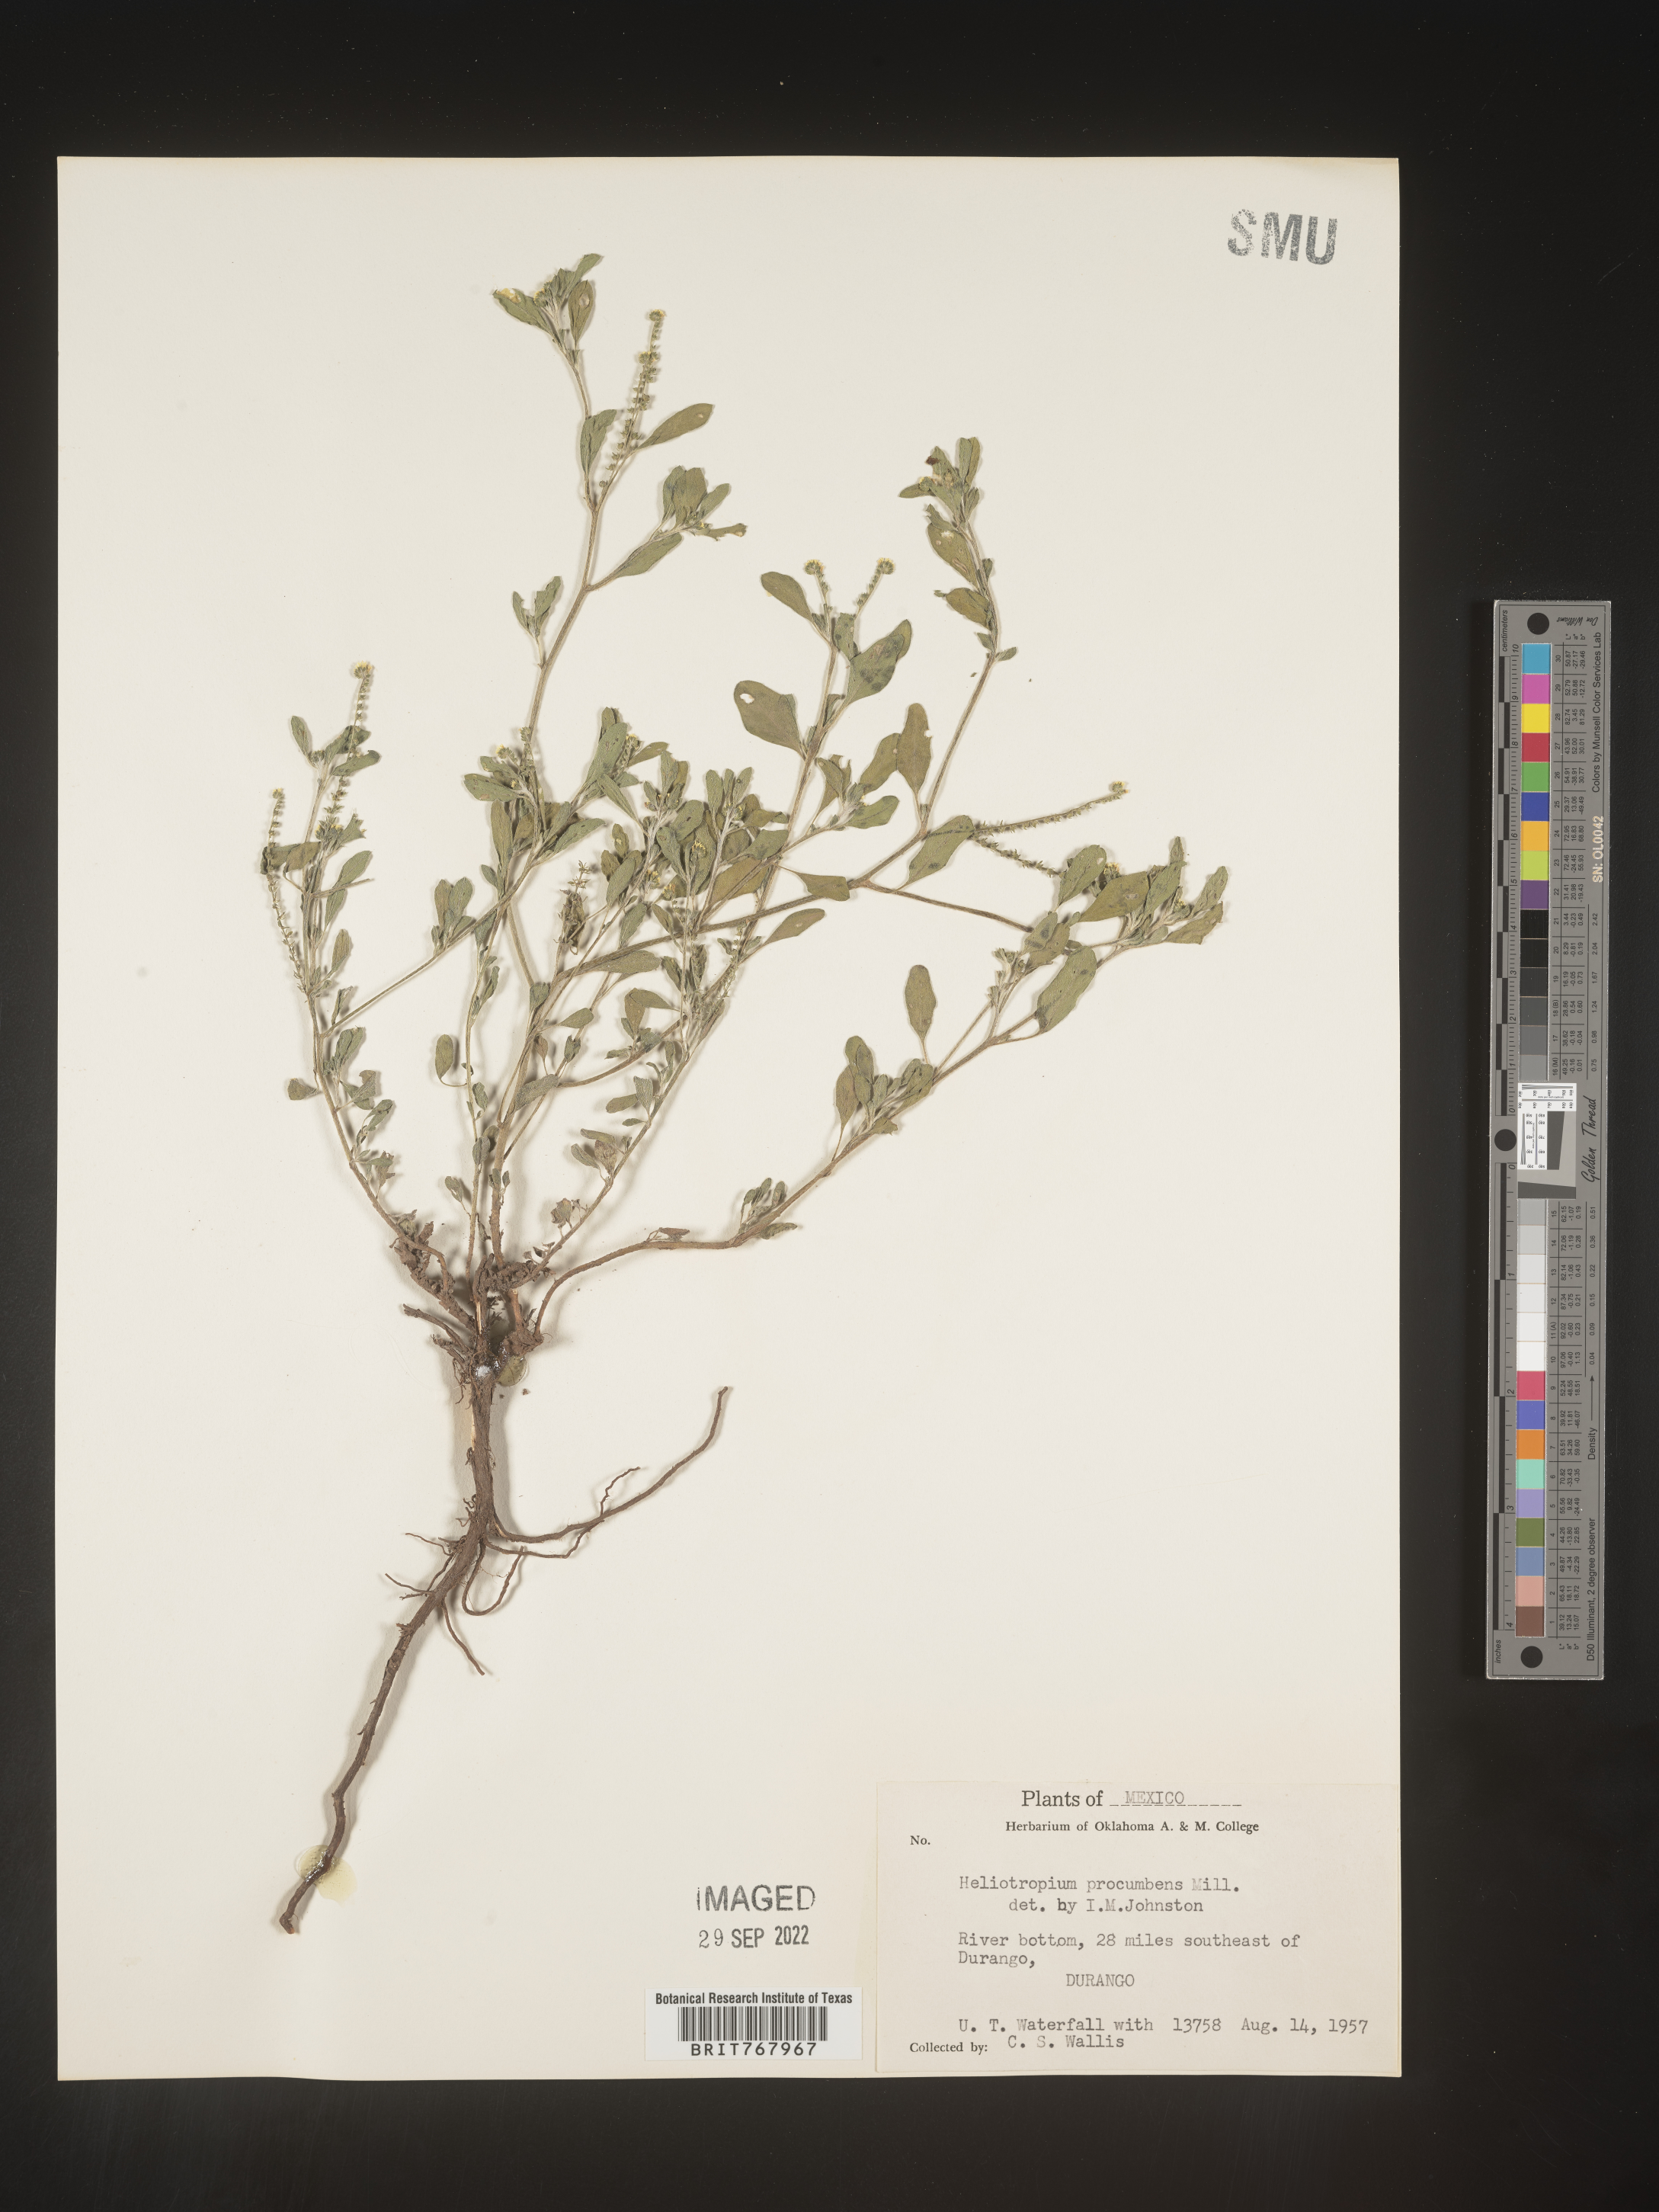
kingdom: Plantae
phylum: Tracheophyta
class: Magnoliopsida
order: Boraginales
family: Heliotropiaceae
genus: Heliotropium
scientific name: Heliotropium
